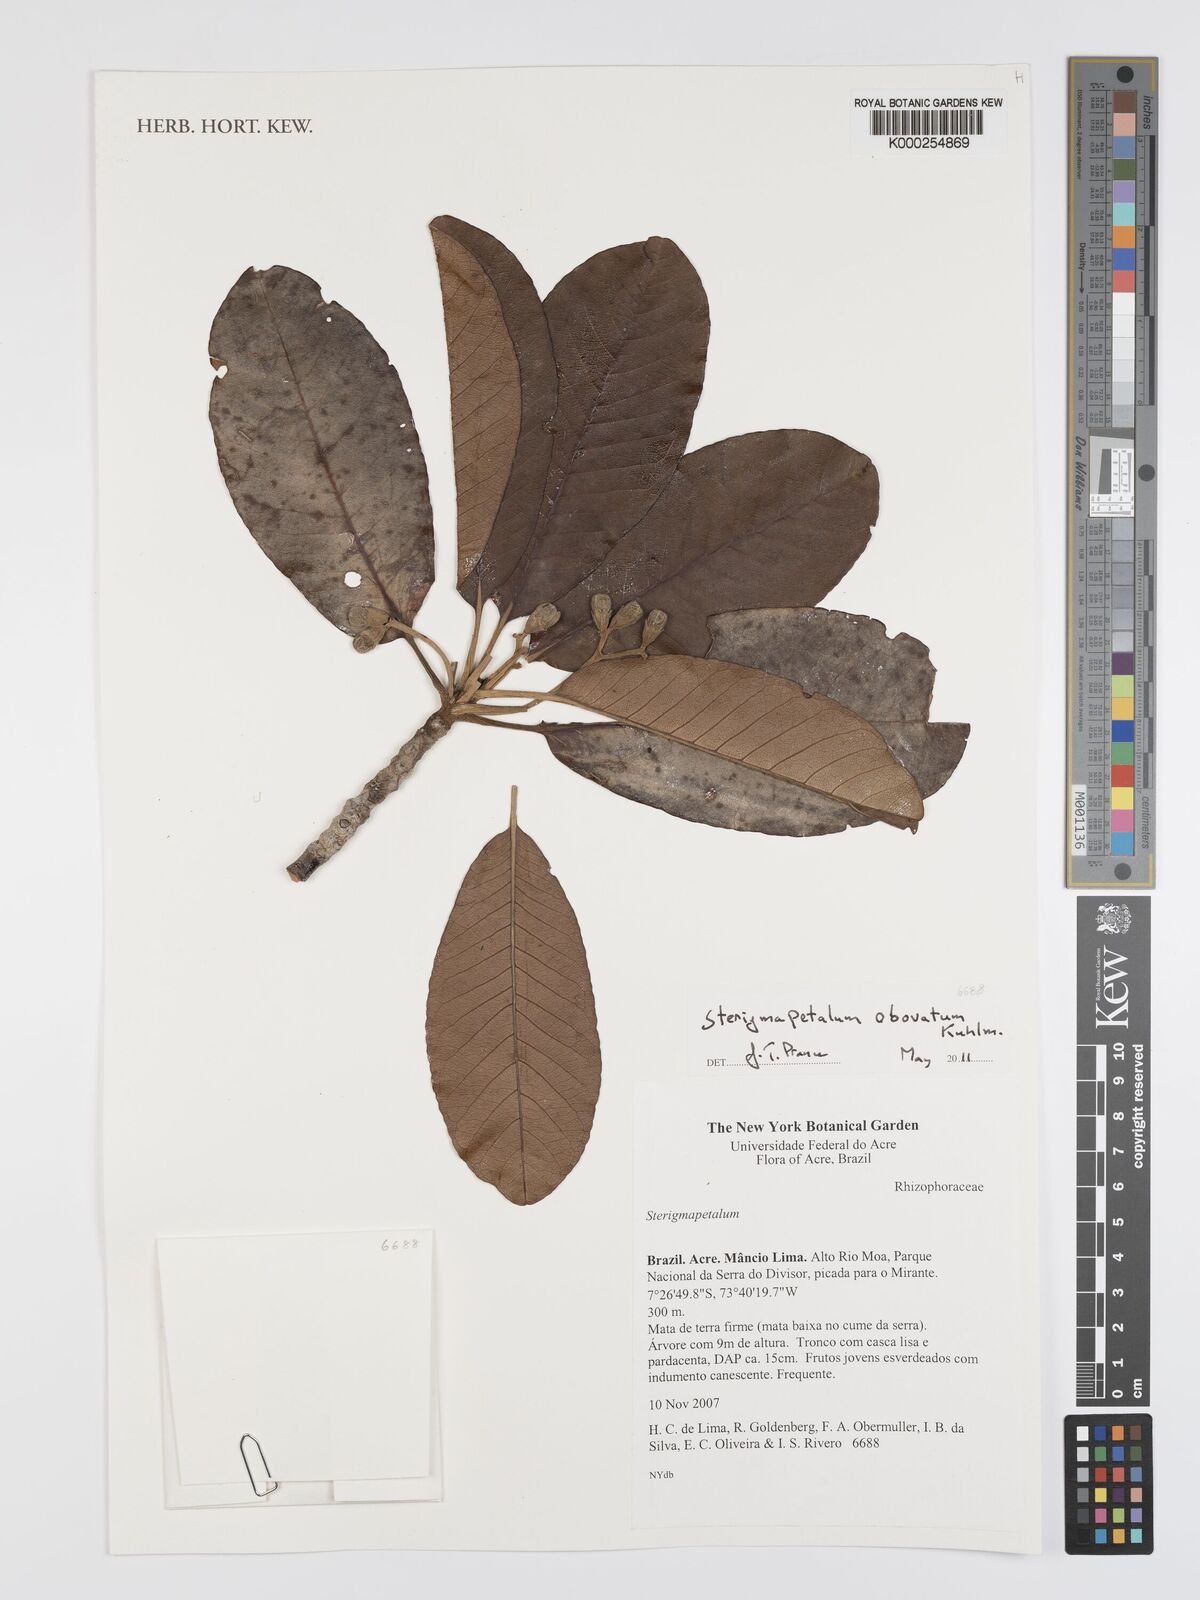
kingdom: Plantae
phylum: Tracheophyta
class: Magnoliopsida
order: Malpighiales
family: Rhizophoraceae
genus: Sterigmapetalum
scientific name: Sterigmapetalum obovatum
